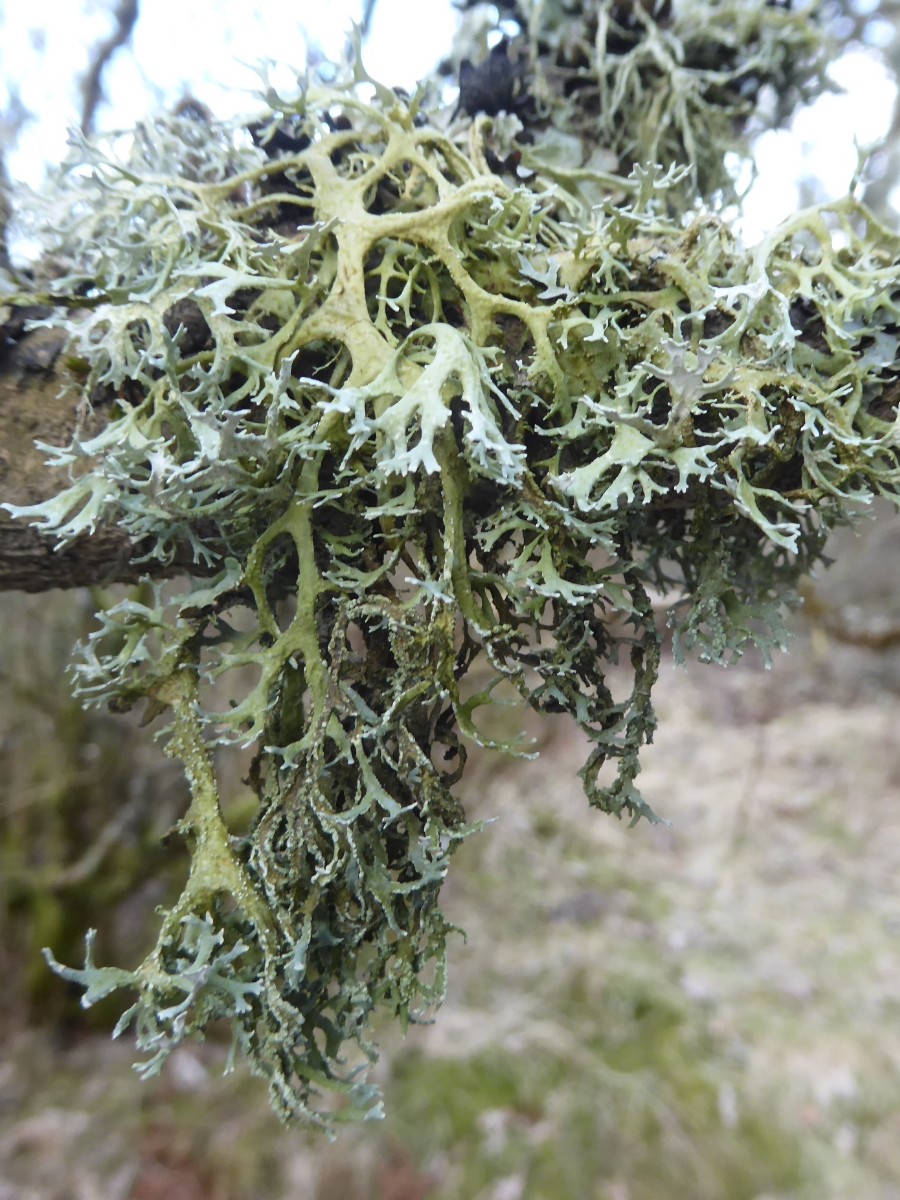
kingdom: Fungi
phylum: Ascomycota
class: Lecanoromycetes
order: Lecanorales
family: Parmeliaceae
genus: Evernia
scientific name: Evernia prunastri
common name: almindelig slåenlav
